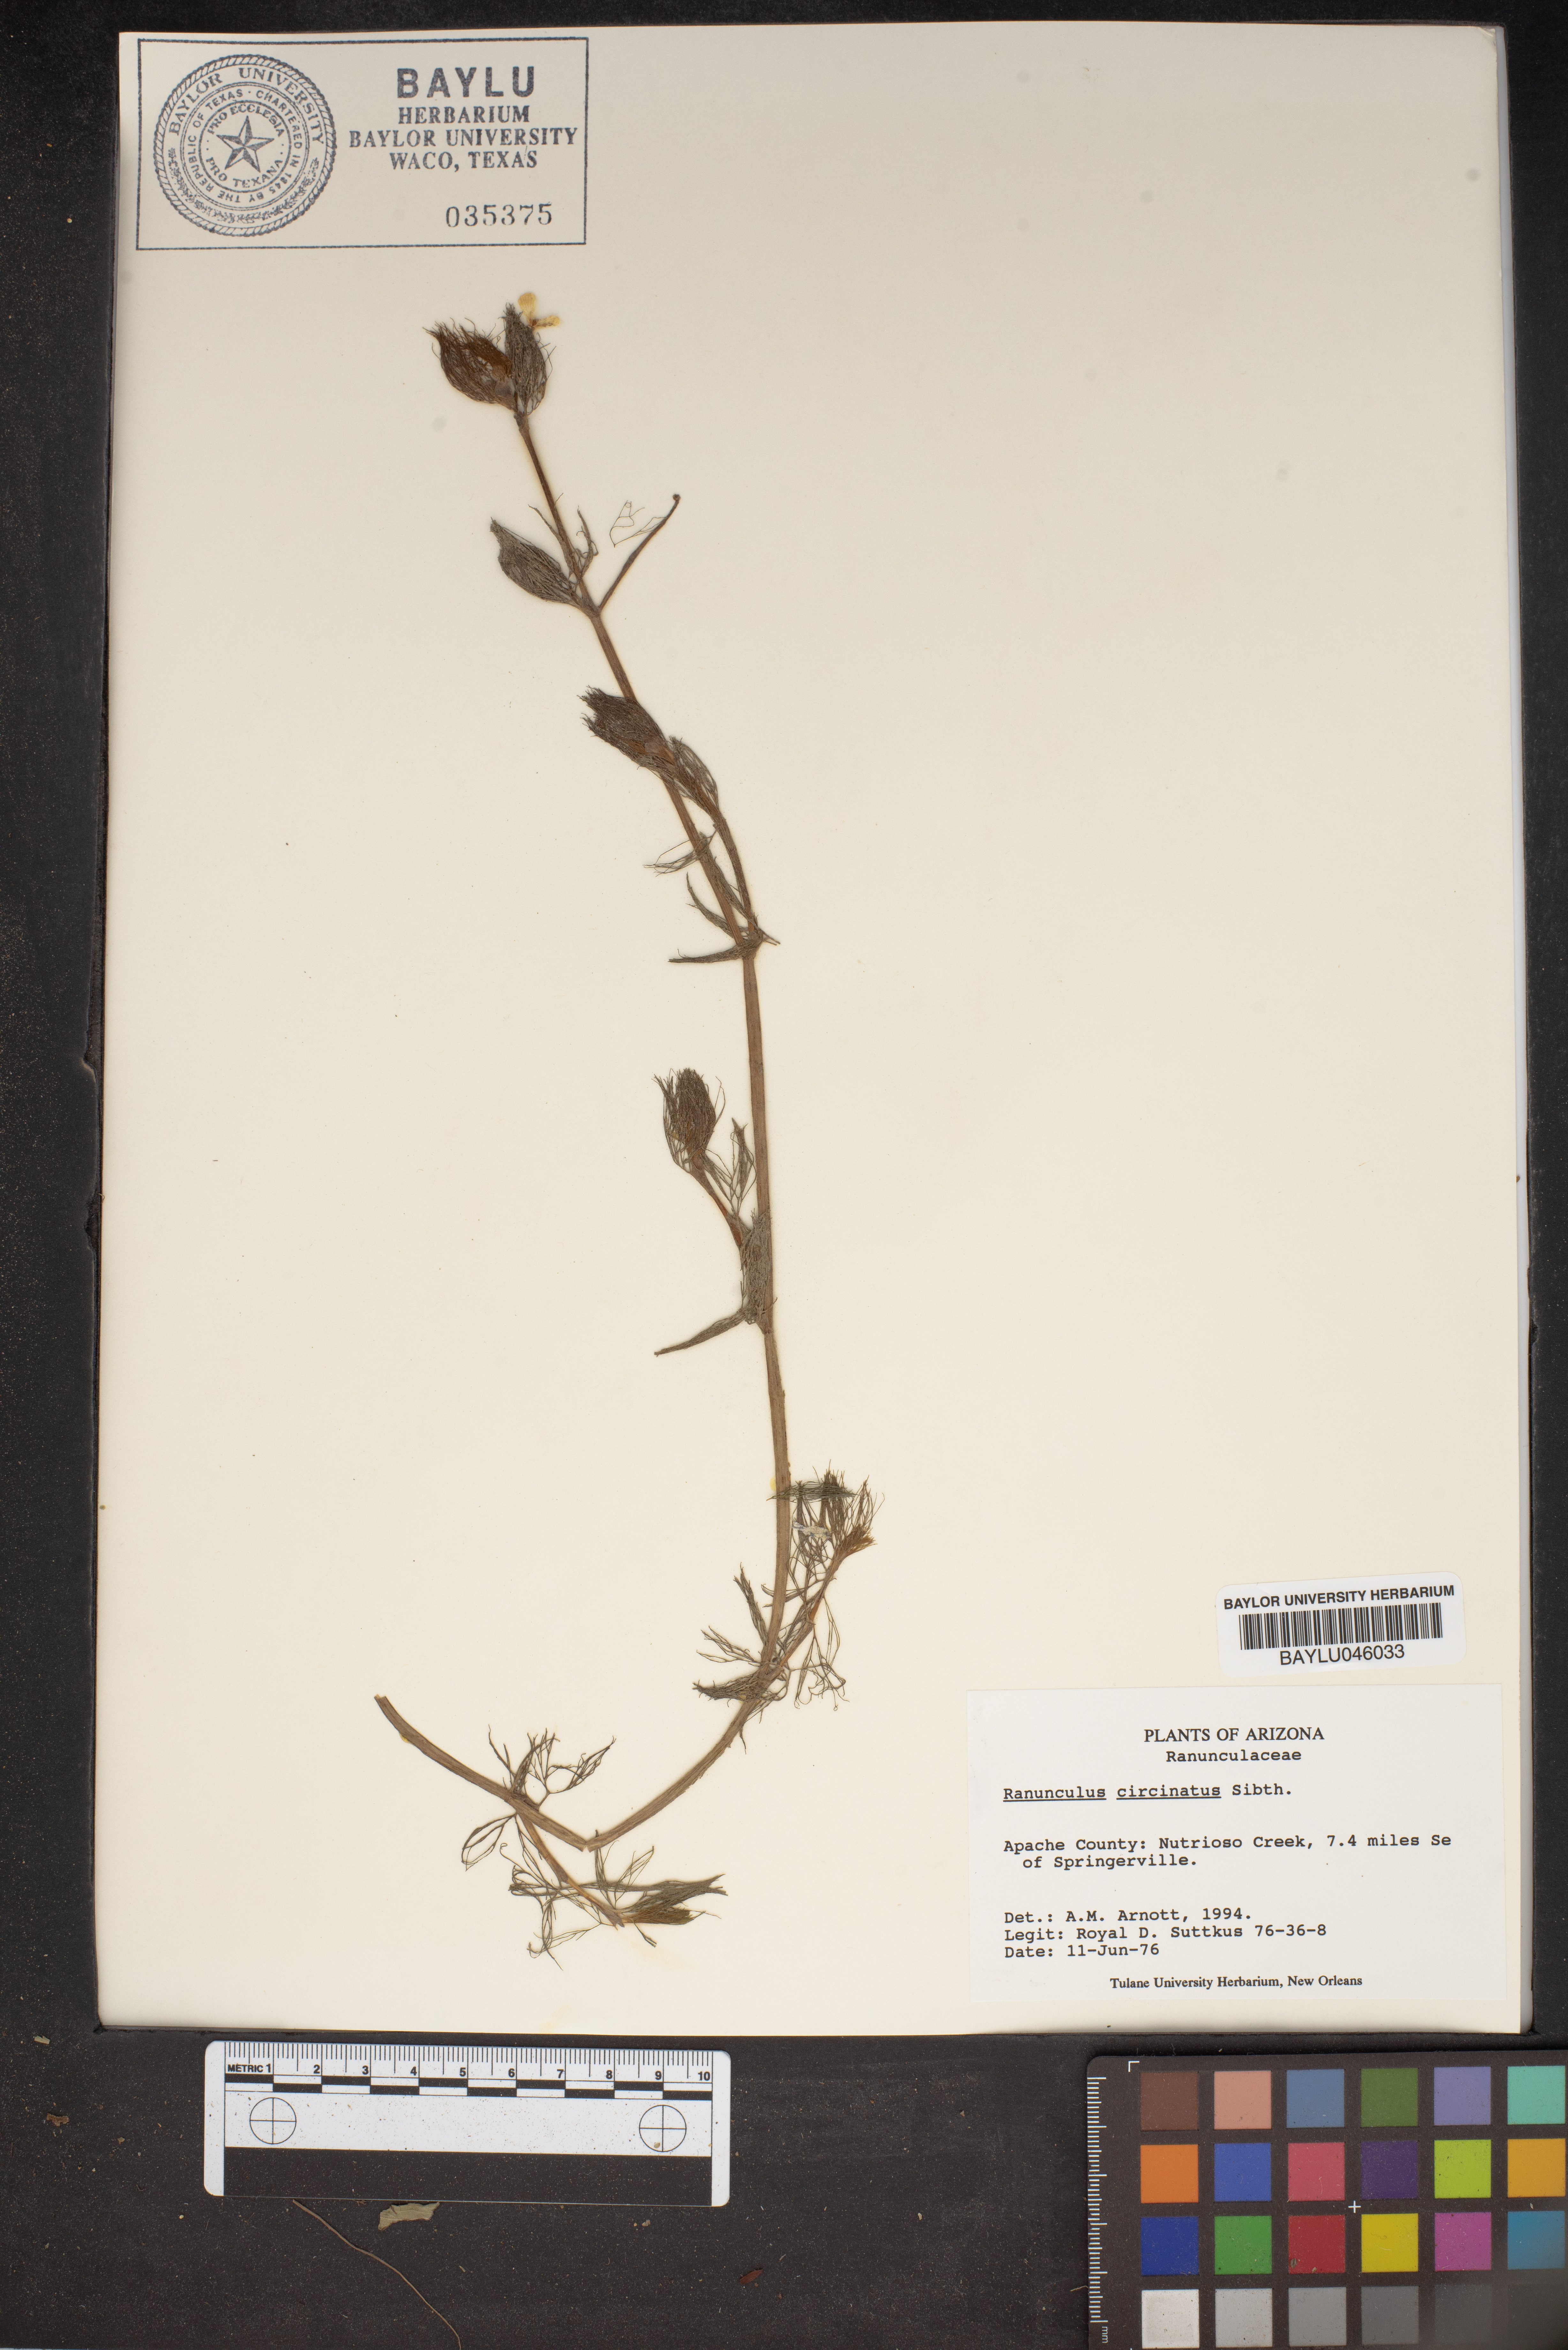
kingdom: Plantae
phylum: Tracheophyta
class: Magnoliopsida
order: Ranunculales
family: Ranunculaceae
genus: Ranunculus
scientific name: Ranunculus circinatus
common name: Fan-leaved water-crowfoot
